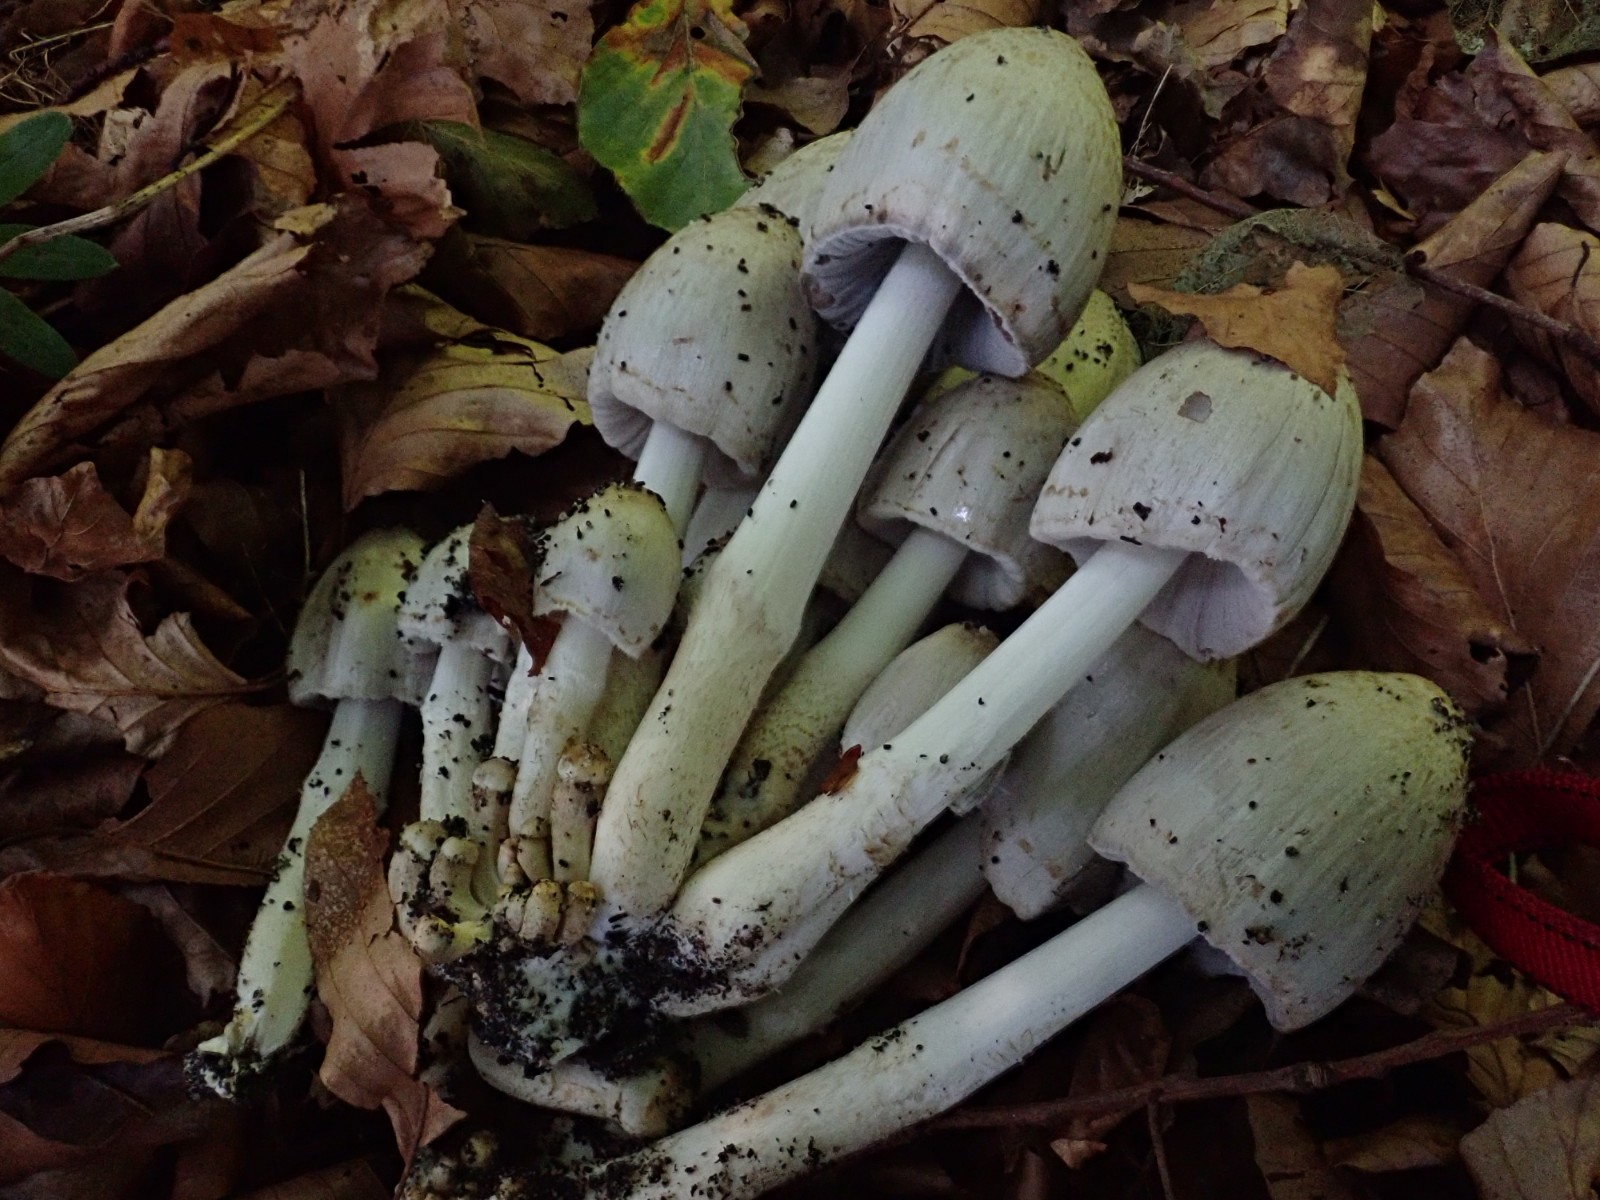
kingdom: Fungi
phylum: Basidiomycota
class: Agaricomycetes
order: Agaricales
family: Psathyrellaceae
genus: Coprinopsis
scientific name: Coprinopsis atramentaria
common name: almindelig blækhat
